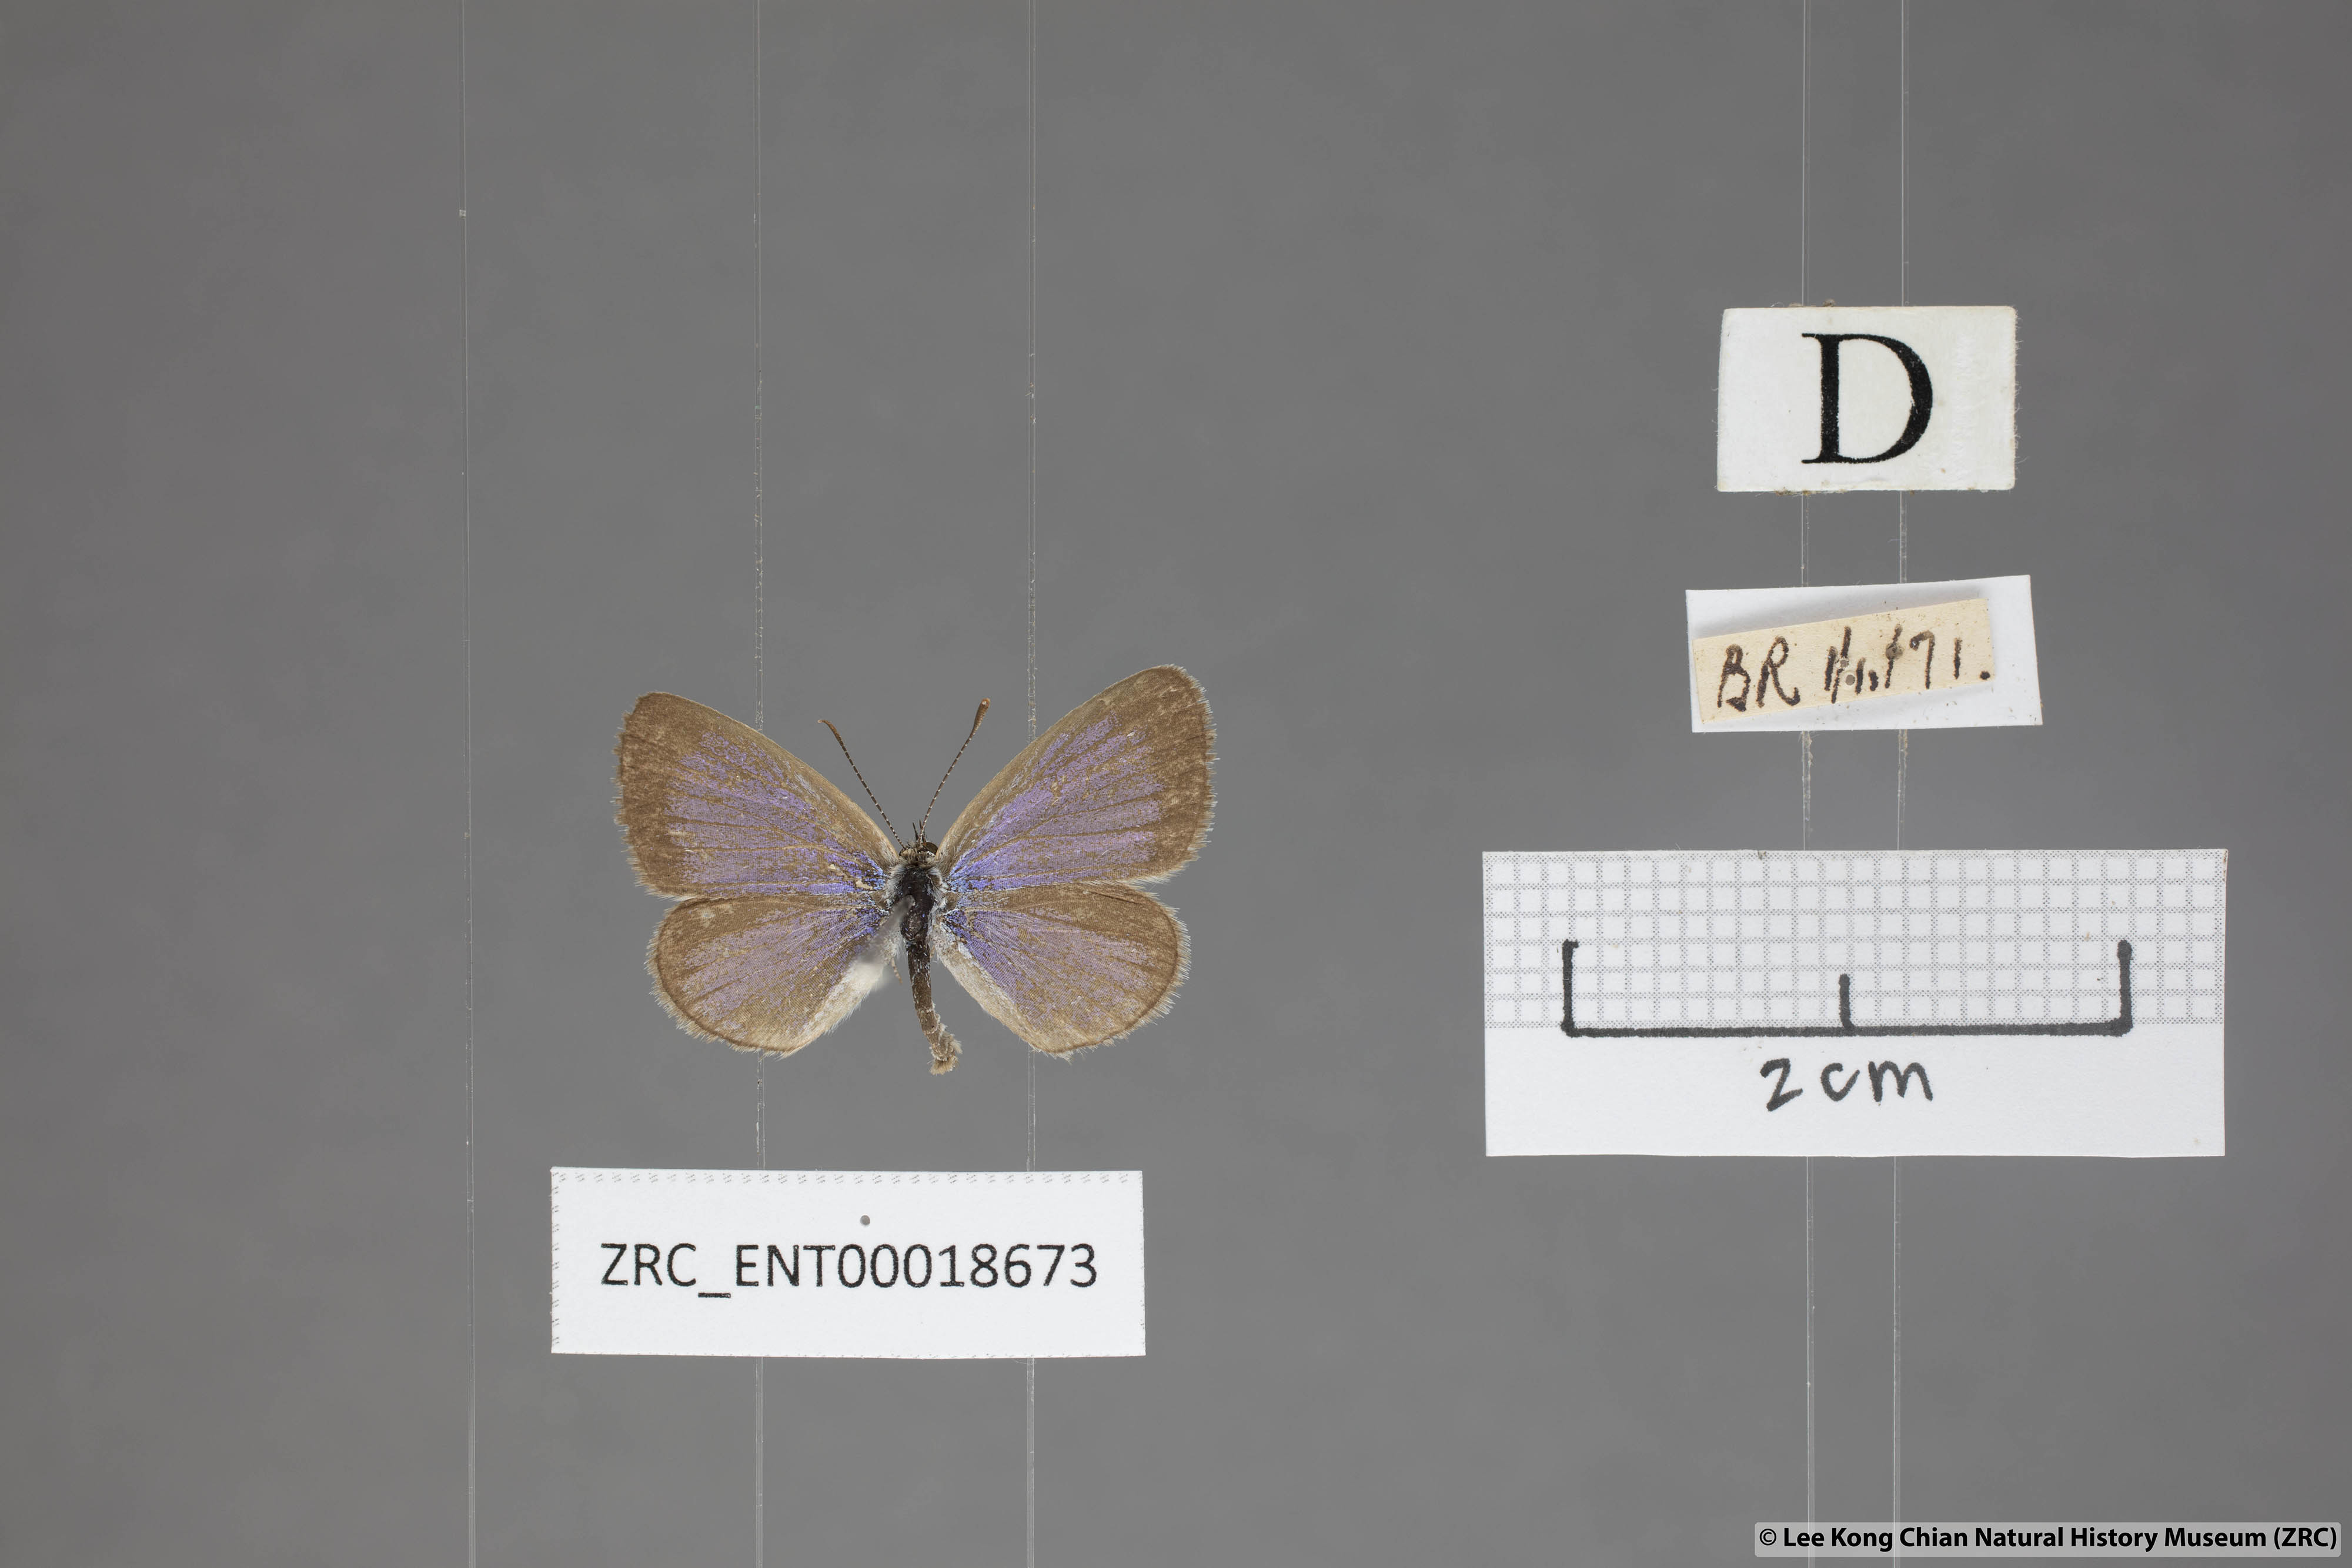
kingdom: Animalia
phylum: Arthropoda
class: Insecta
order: Lepidoptera
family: Lycaenidae
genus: Zizina
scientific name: Zizina otis
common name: Lesser grass blue
